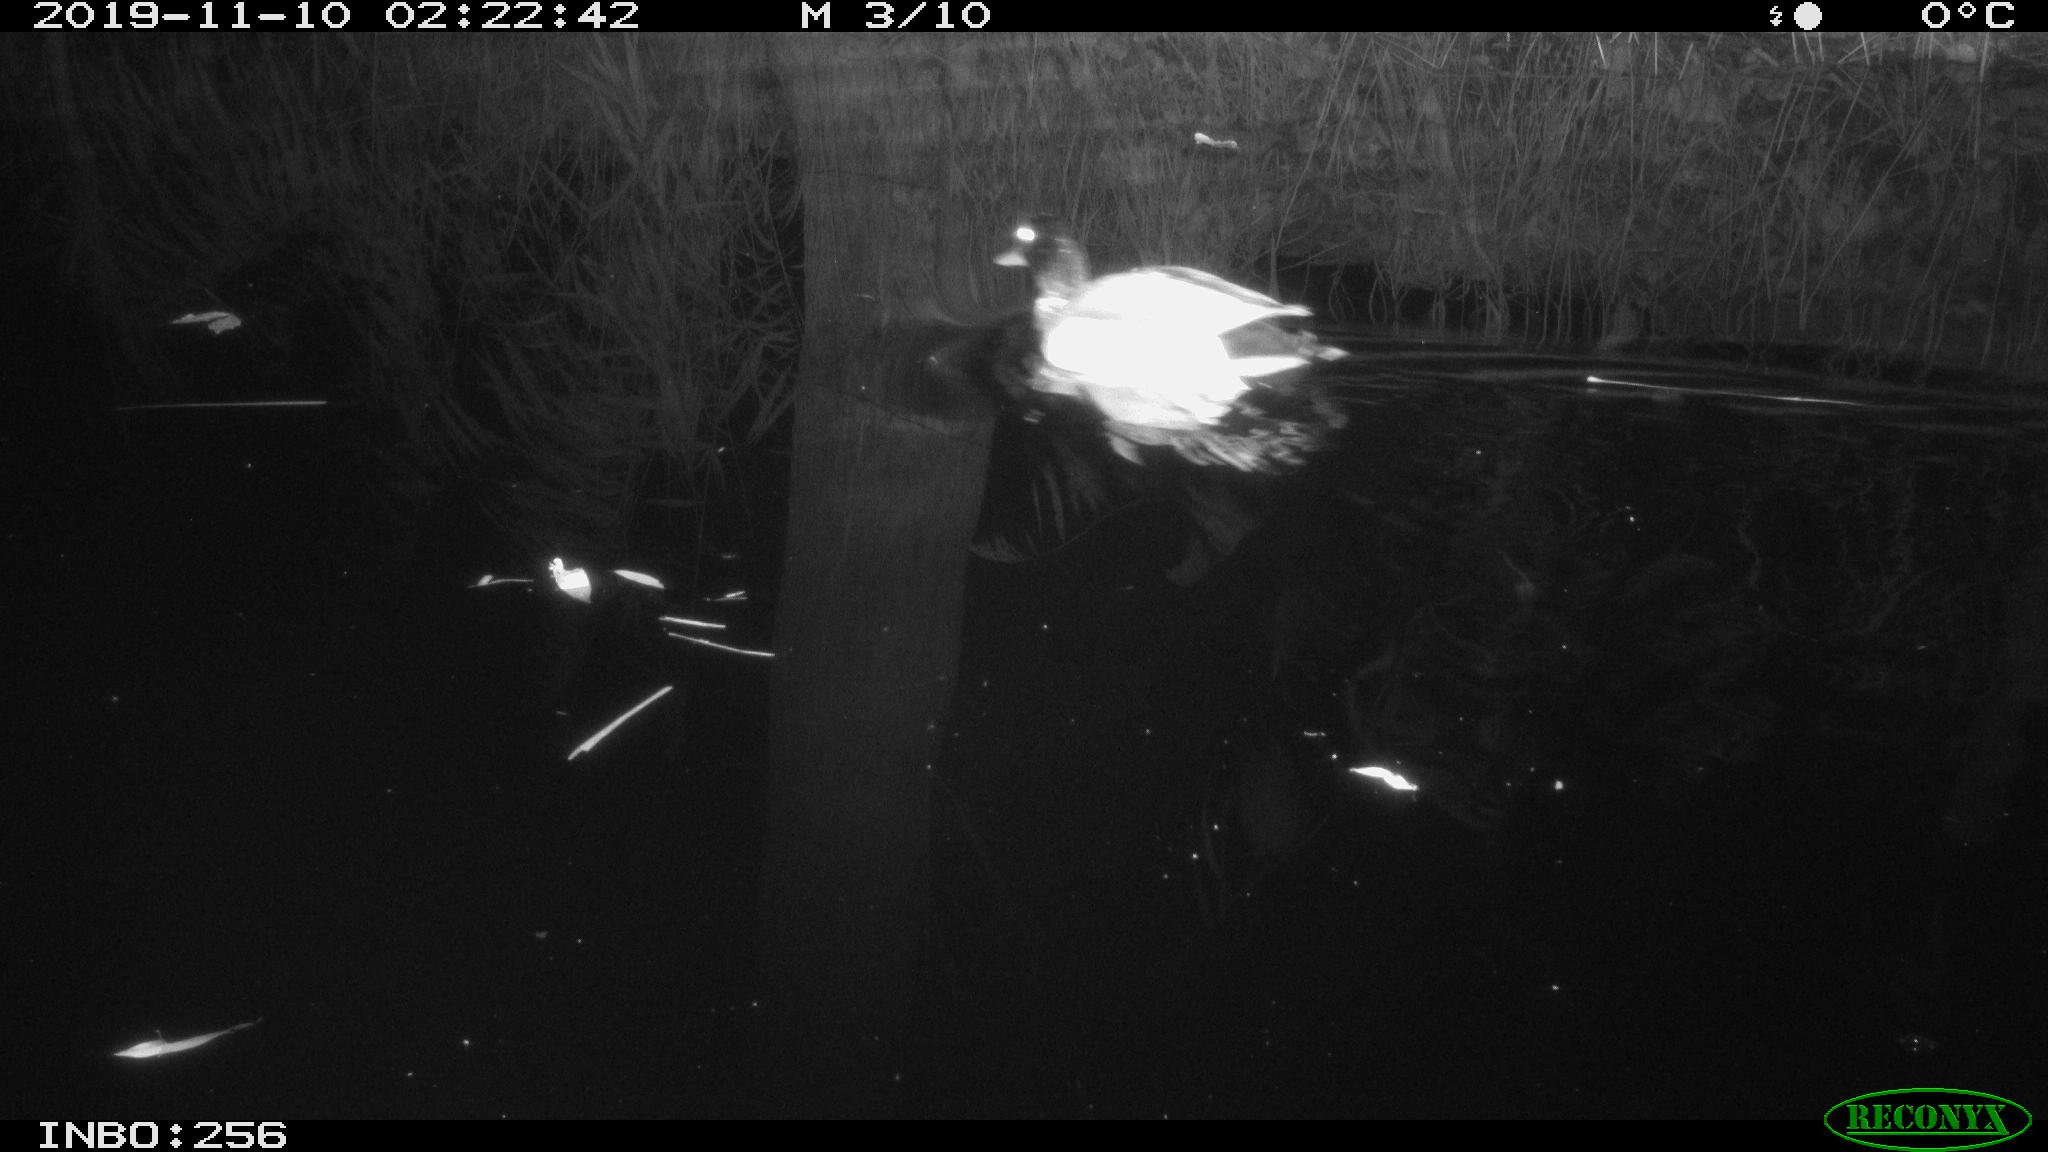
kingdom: Animalia
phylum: Chordata
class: Aves
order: Anseriformes
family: Anatidae
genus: Anas
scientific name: Anas platyrhynchos
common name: Mallard
